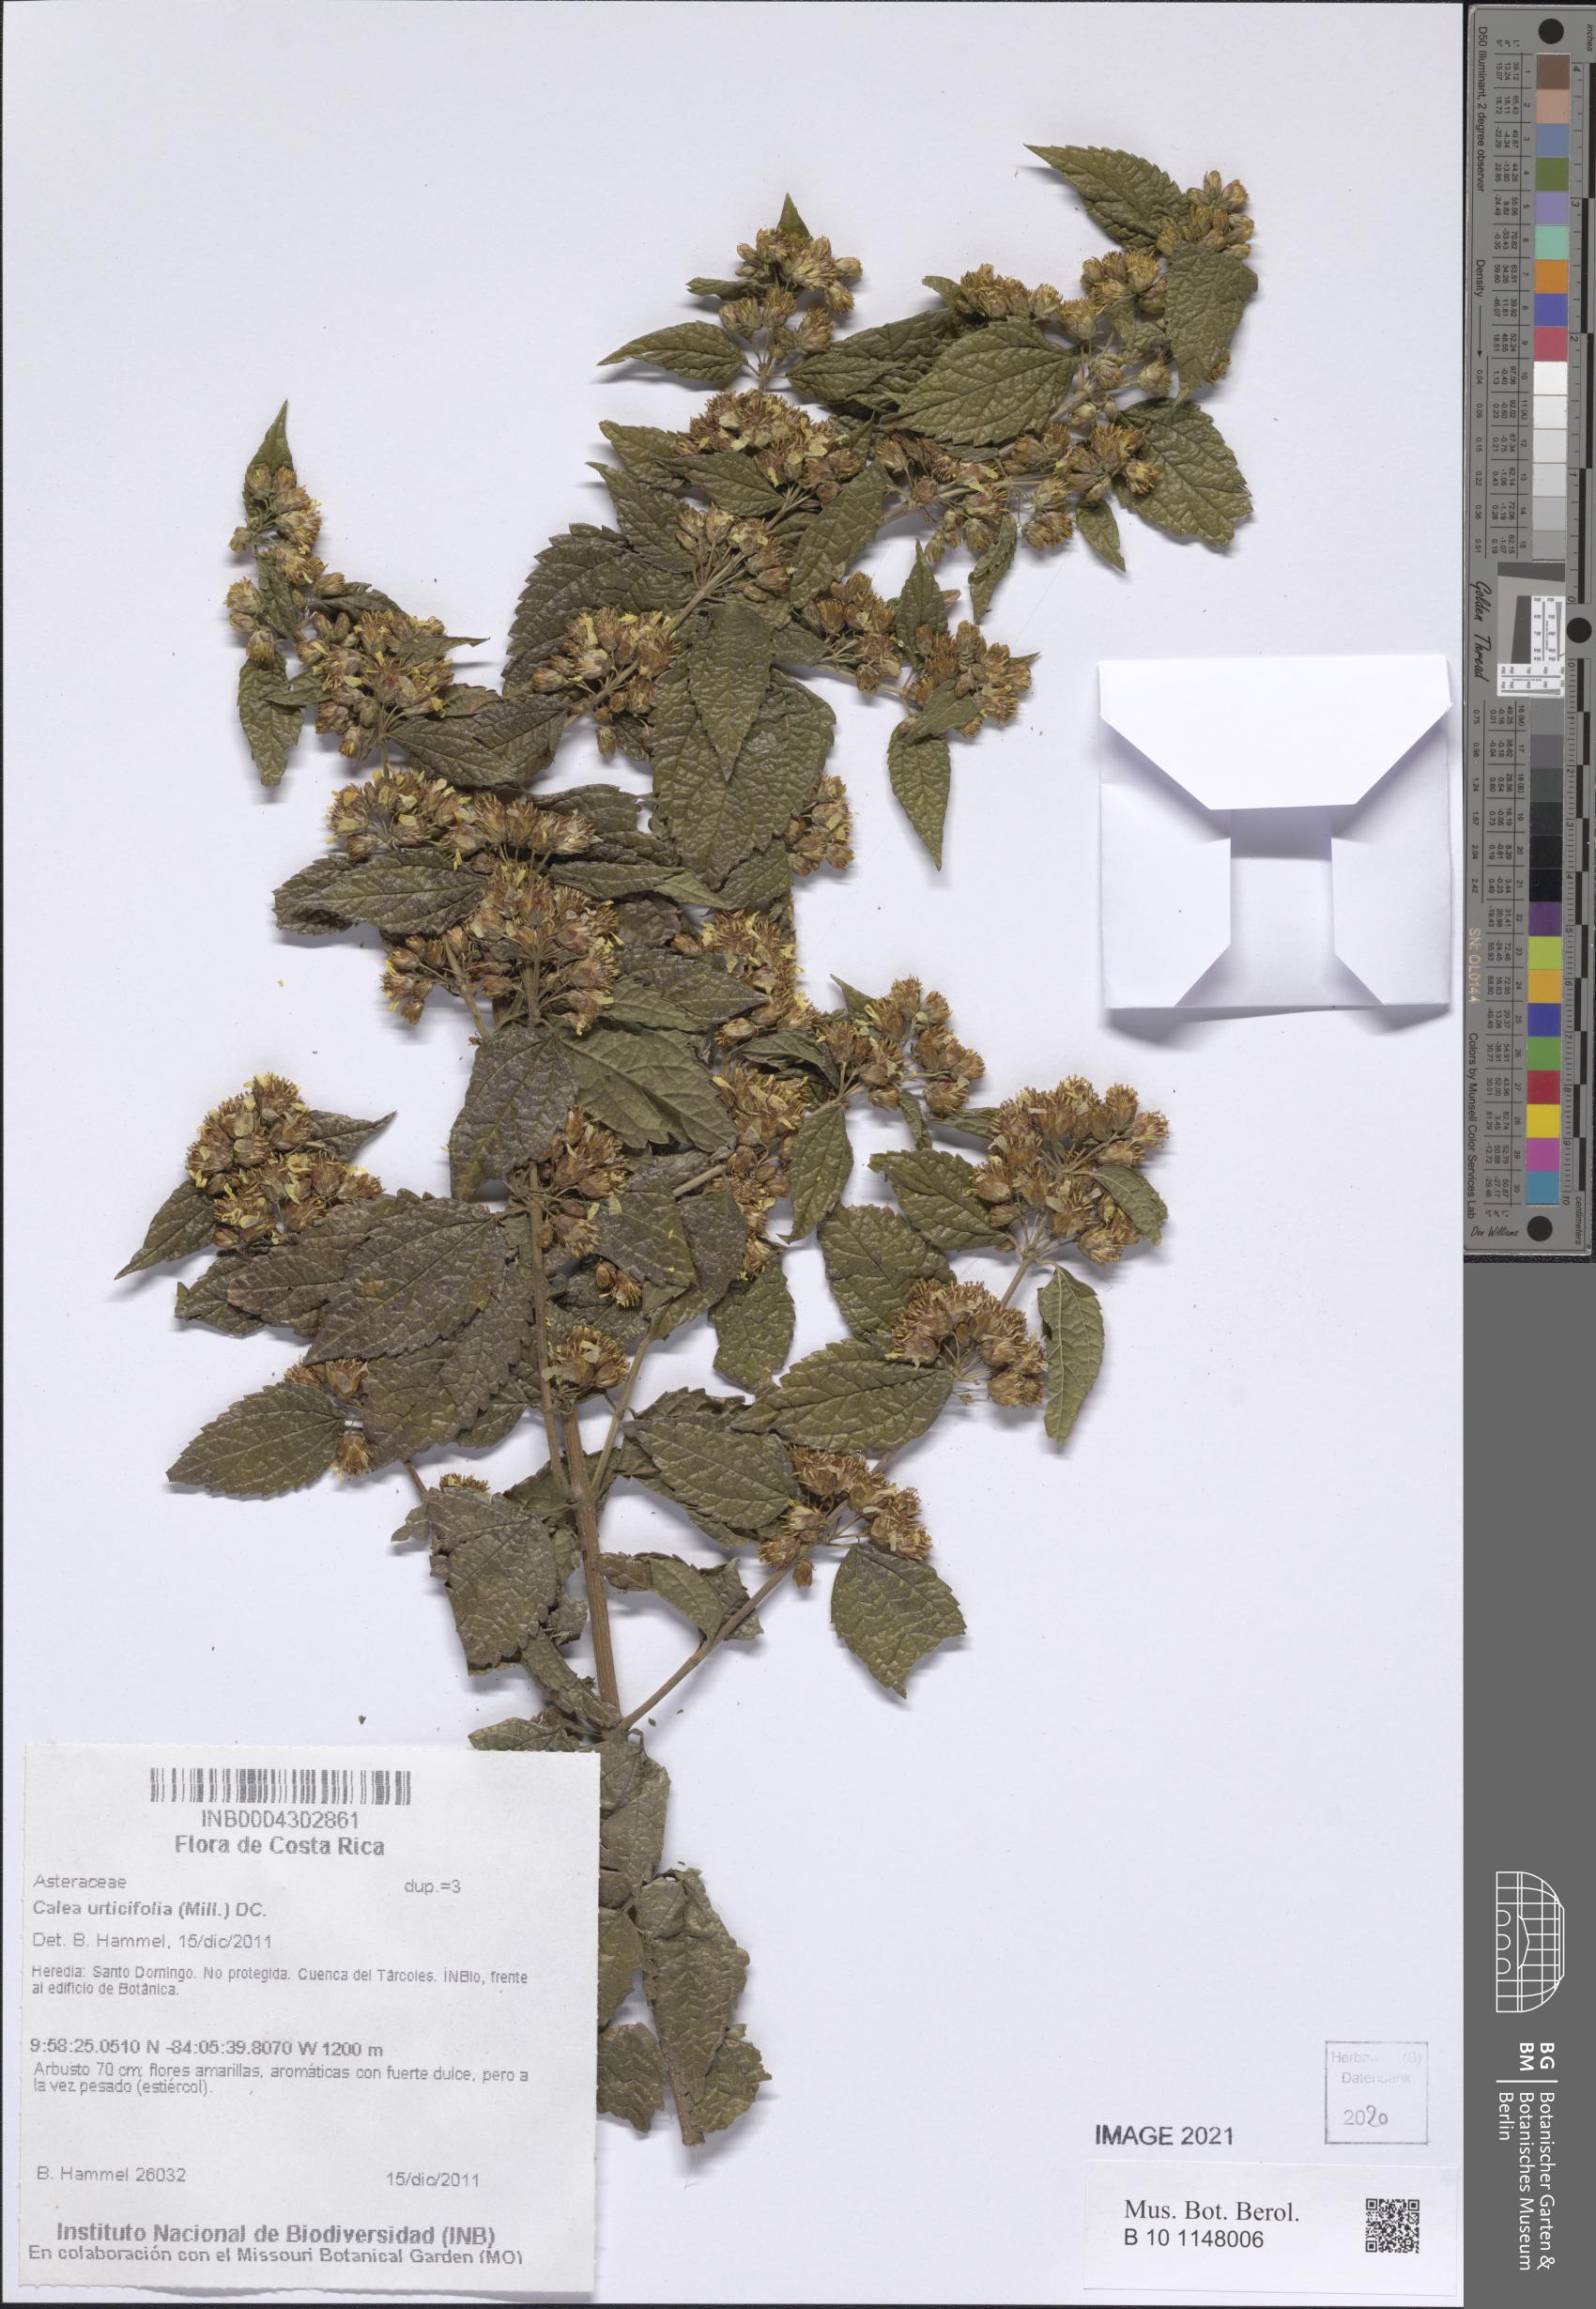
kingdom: Plantae
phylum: Tracheophyta
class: Magnoliopsida
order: Asterales
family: Asteraceae
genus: Calea
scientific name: Calea urticifolia
